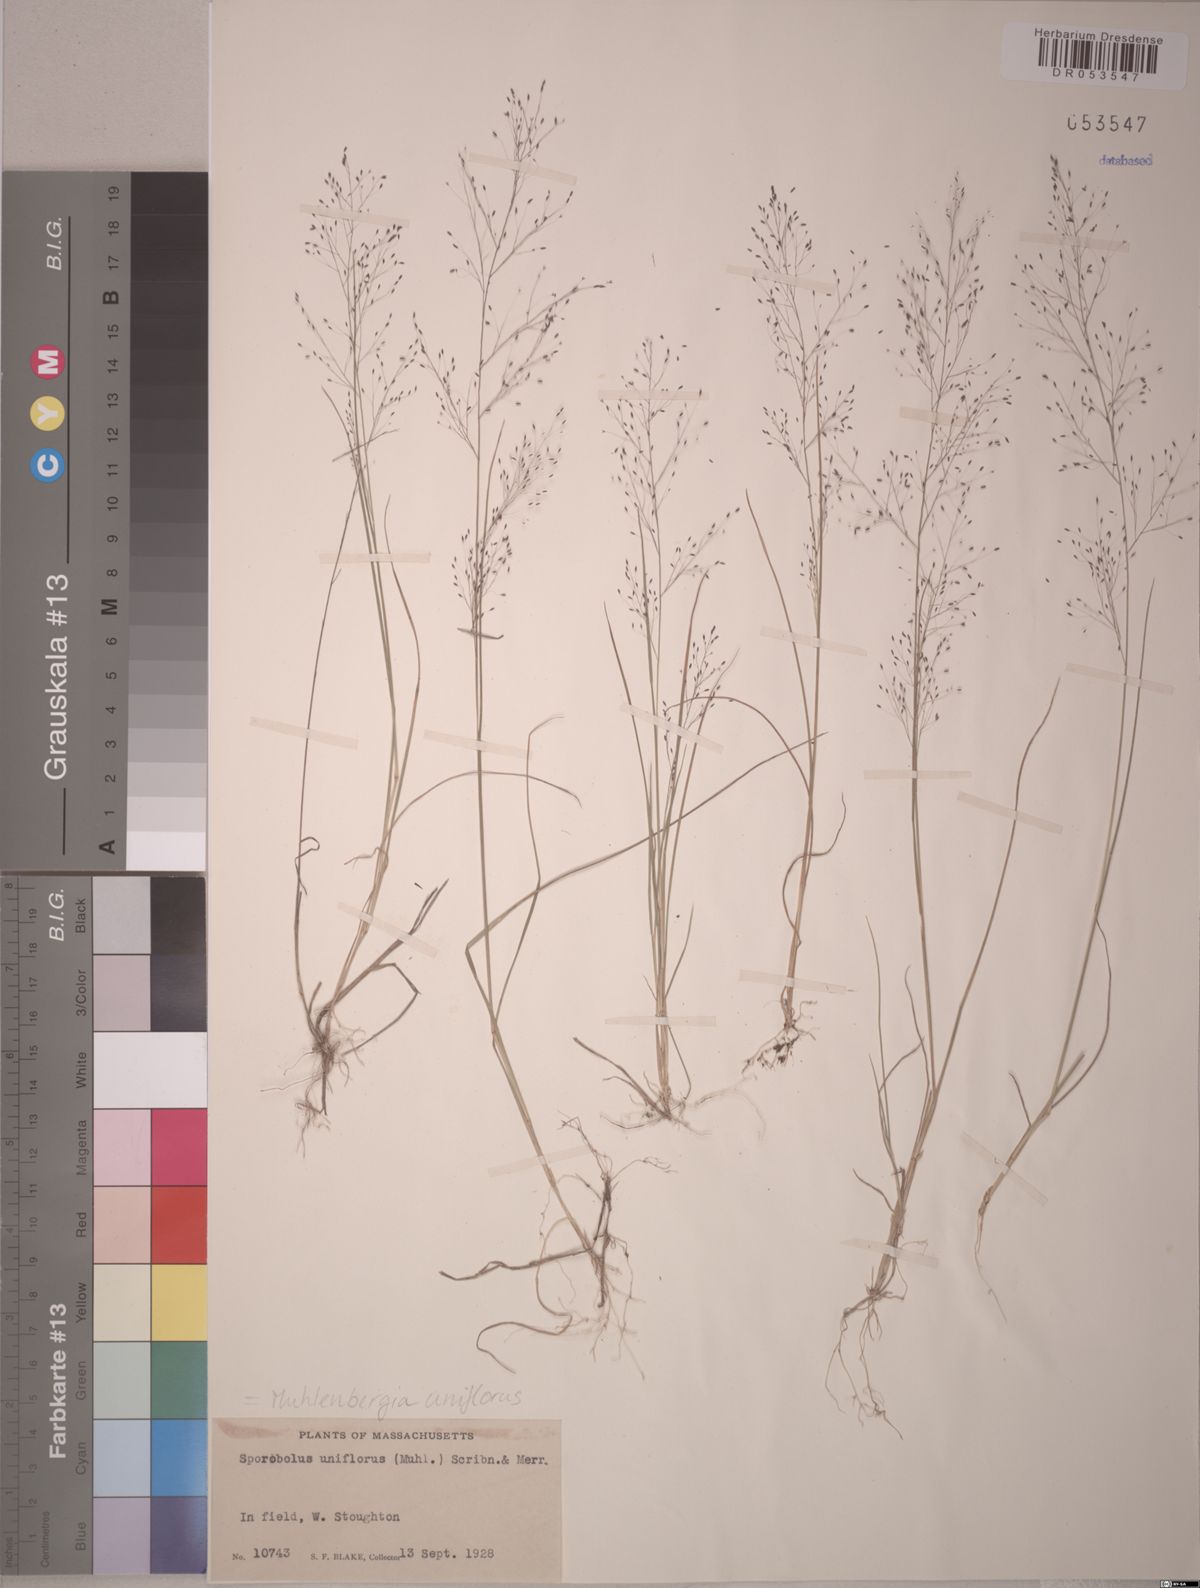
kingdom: Plantae
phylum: Tracheophyta
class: Liliopsida
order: Poales
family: Poaceae
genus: Muhlenbergia
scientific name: Muhlenbergia uniflora
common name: Bog muhly
